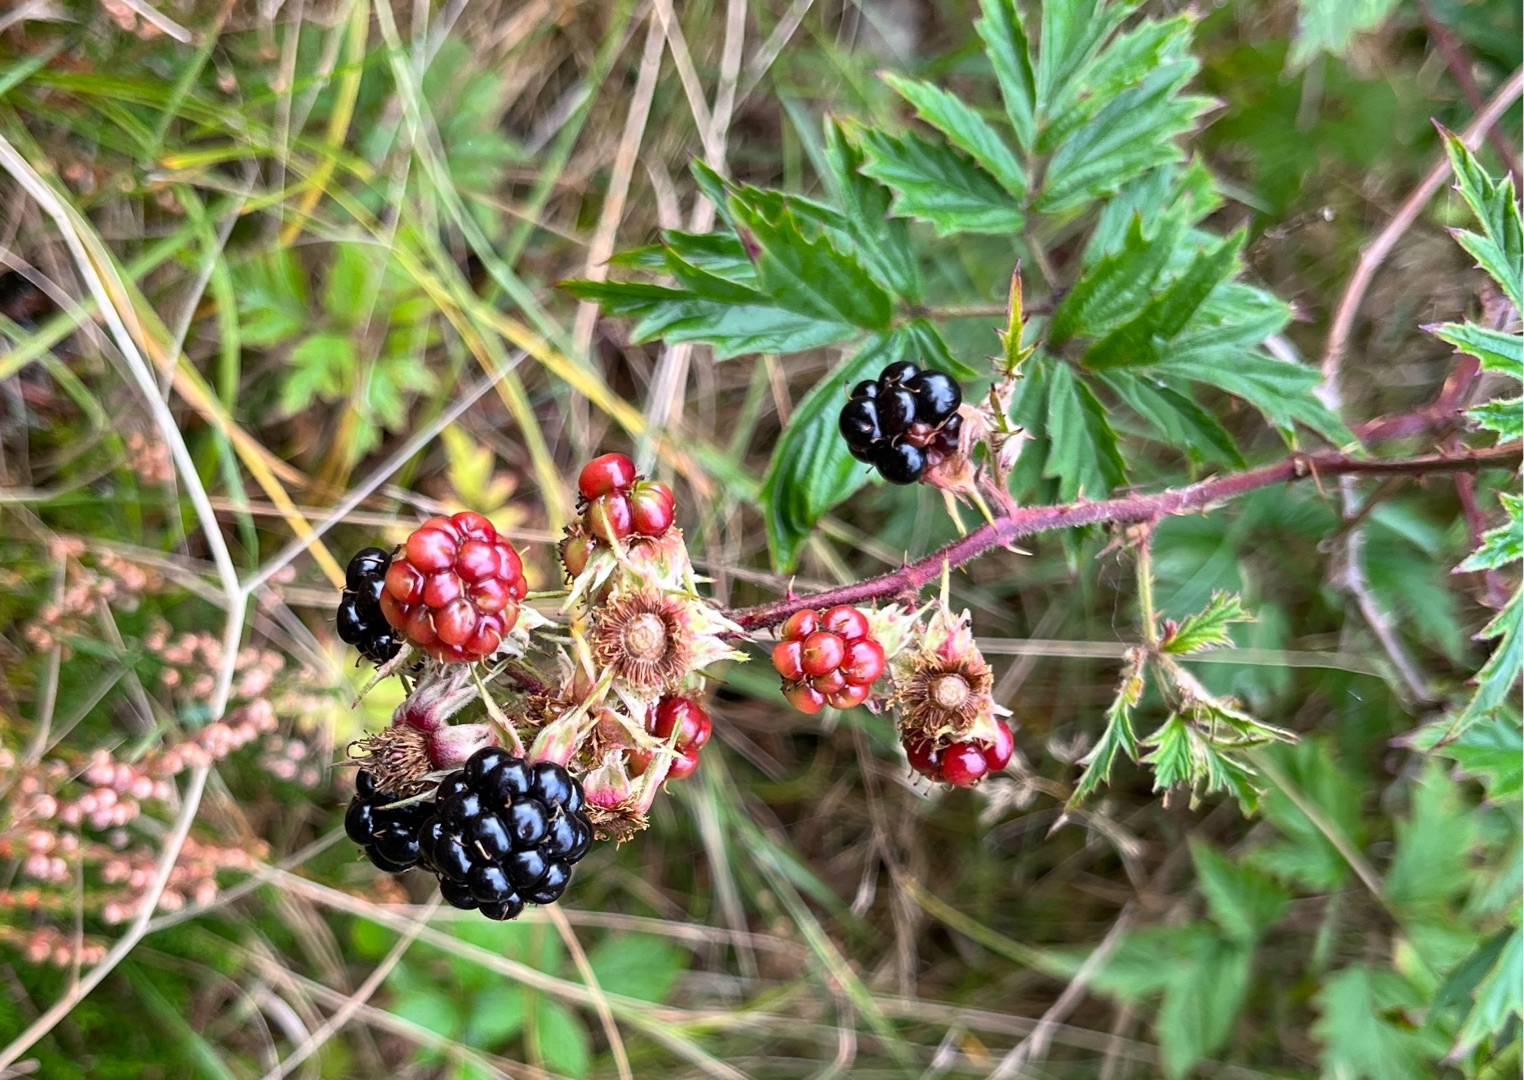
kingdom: Plantae
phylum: Tracheophyta
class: Magnoliopsida
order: Rosales
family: Rosaceae
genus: Rubus
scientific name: Rubus laciniatus
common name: Fliget brombær
